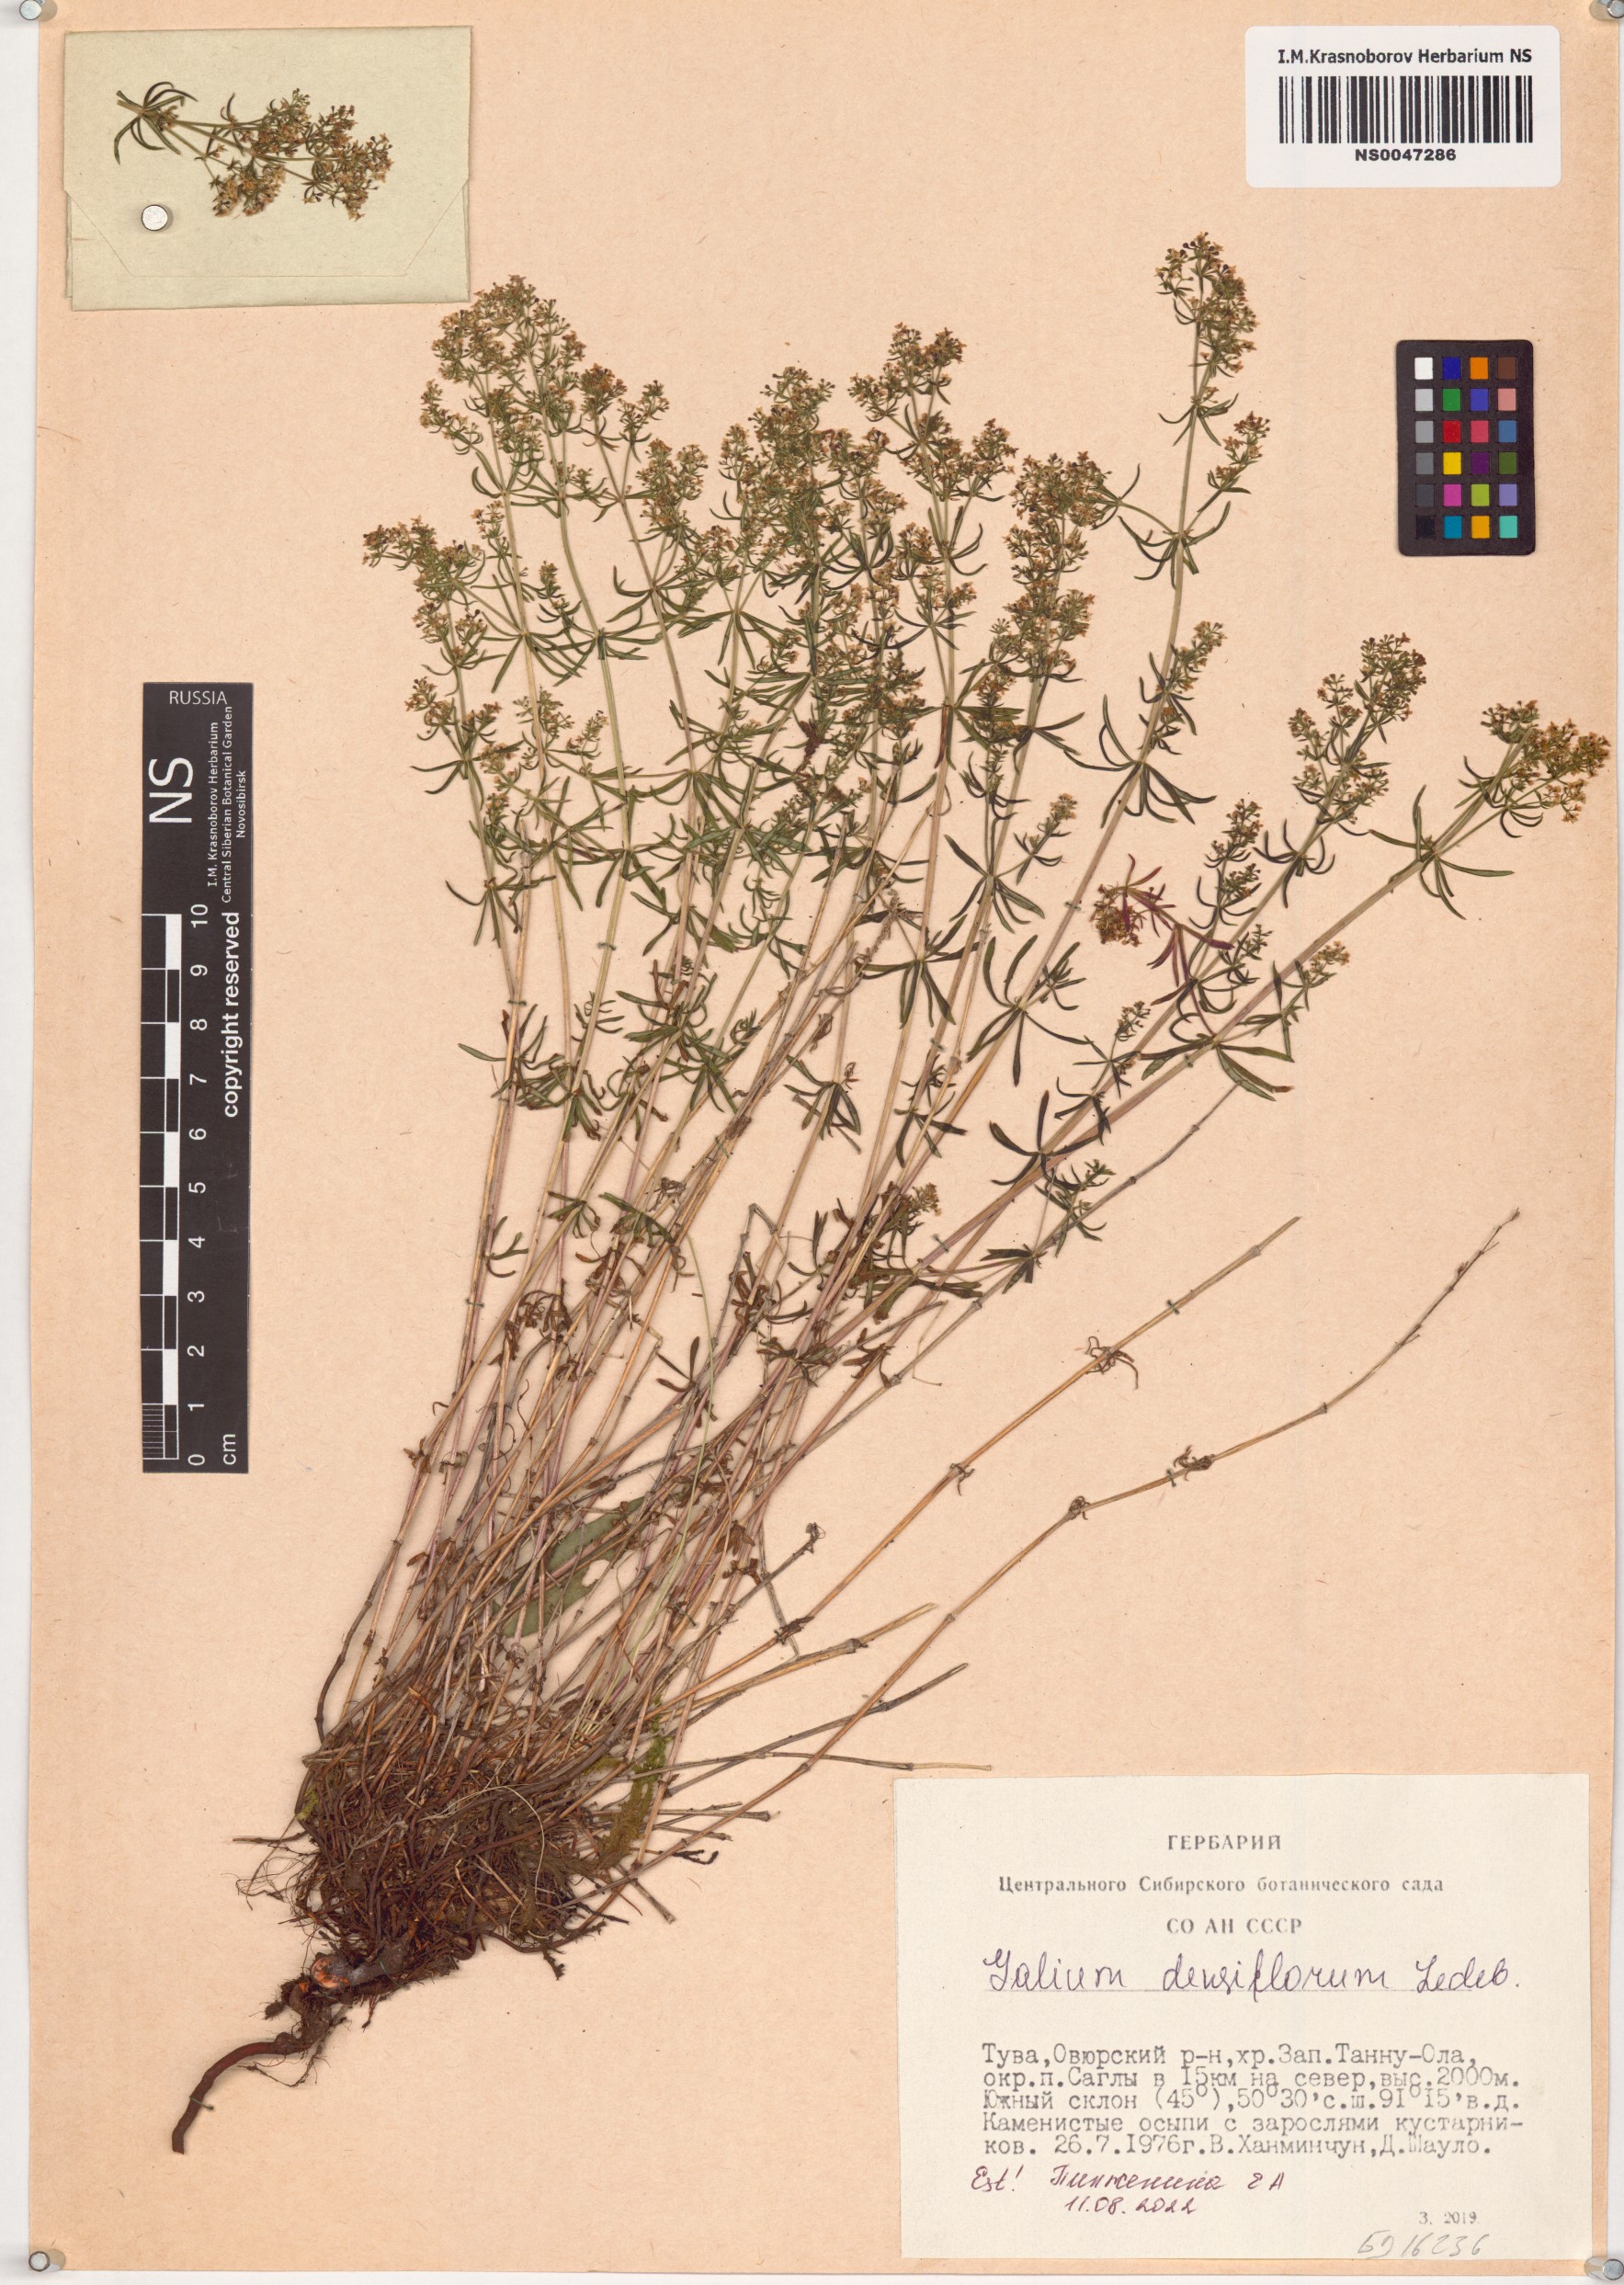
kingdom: Plantae
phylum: Tracheophyta
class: Magnoliopsida
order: Gentianales
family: Rubiaceae
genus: Galium
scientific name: Galium densiflorum
